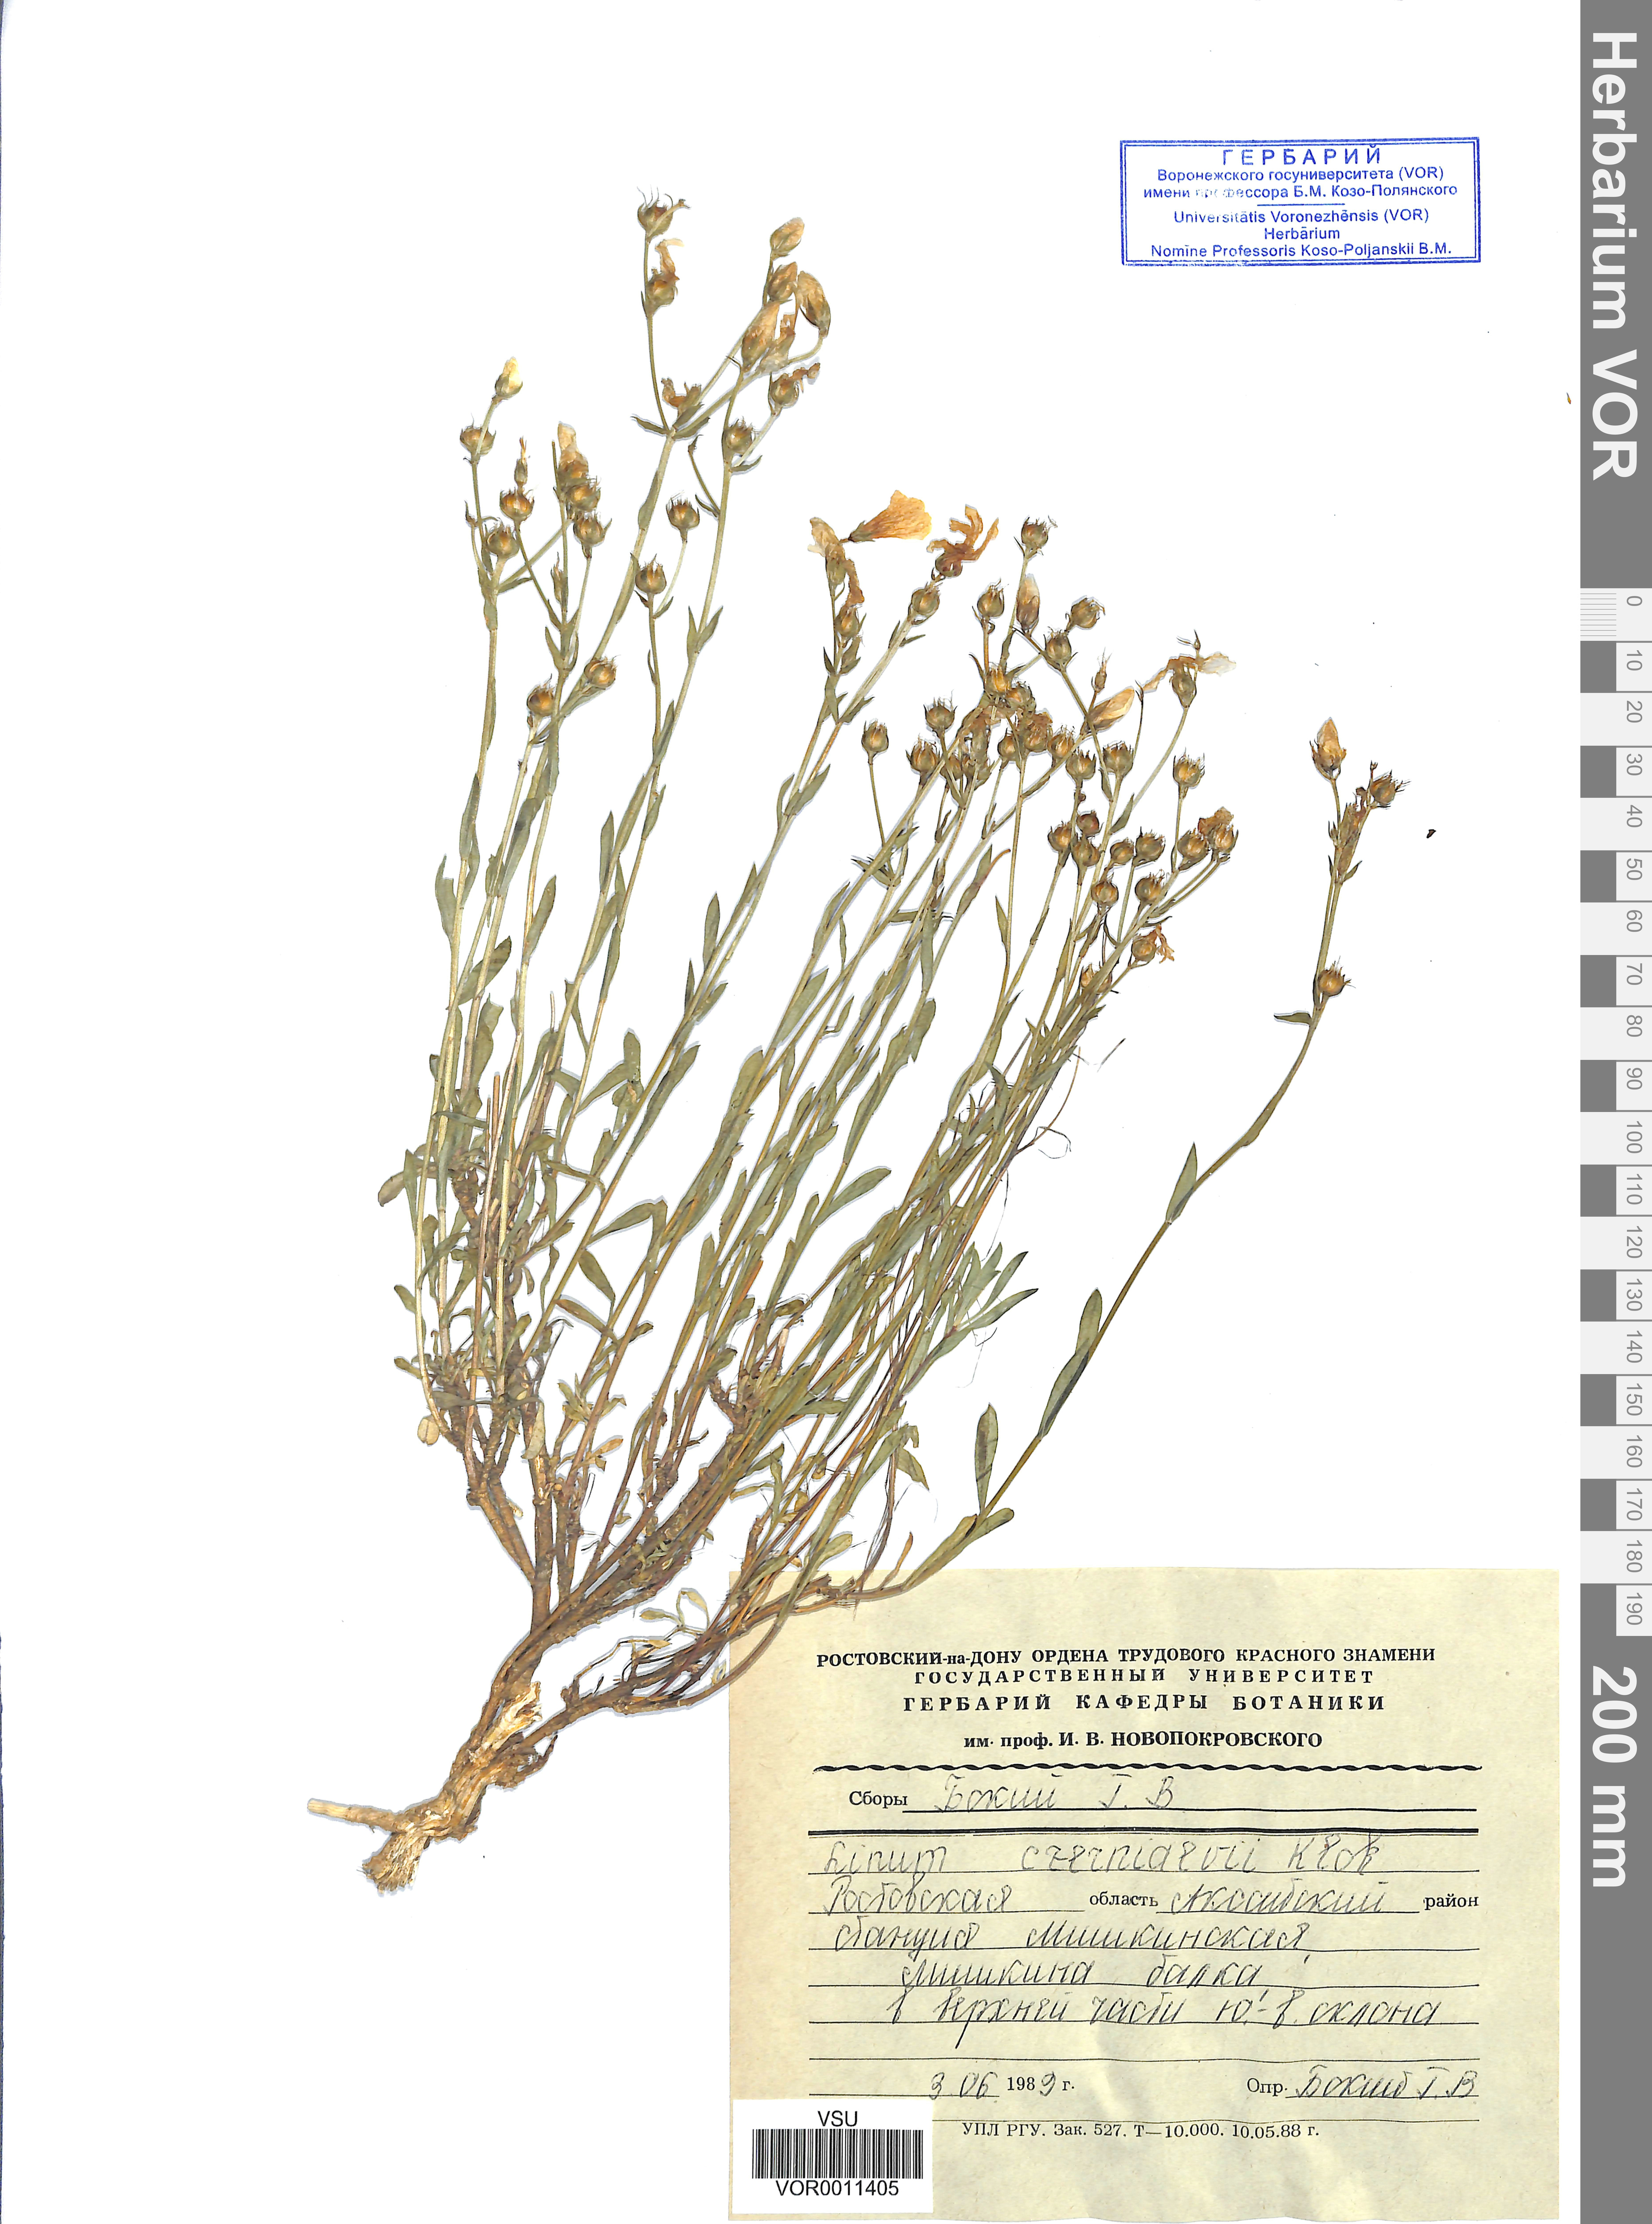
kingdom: Plantae
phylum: Tracheophyta
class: Magnoliopsida
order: Malpighiales
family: Linaceae
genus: Linum
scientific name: Linum pallasianum
